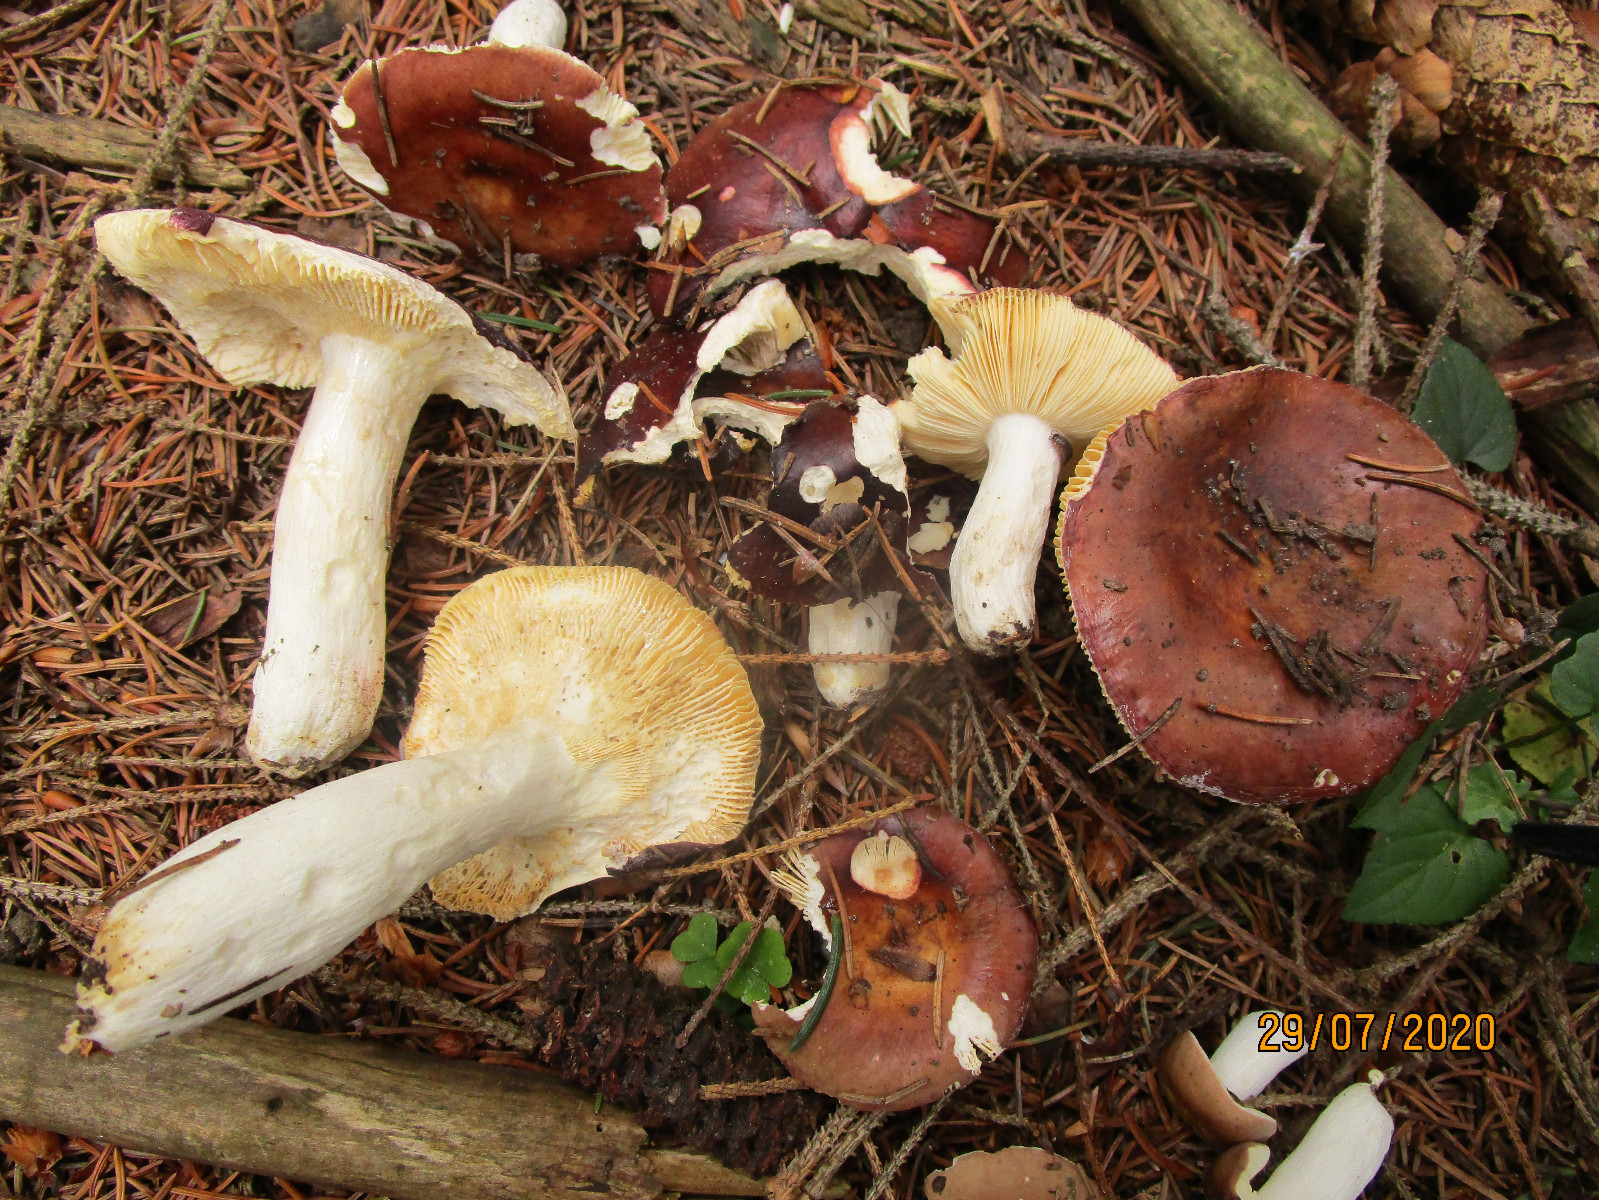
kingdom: Fungi
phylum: Basidiomycota
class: Agaricomycetes
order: Russulales
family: Russulaceae
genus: Russula
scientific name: Russula integra
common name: mandel-skørhat
